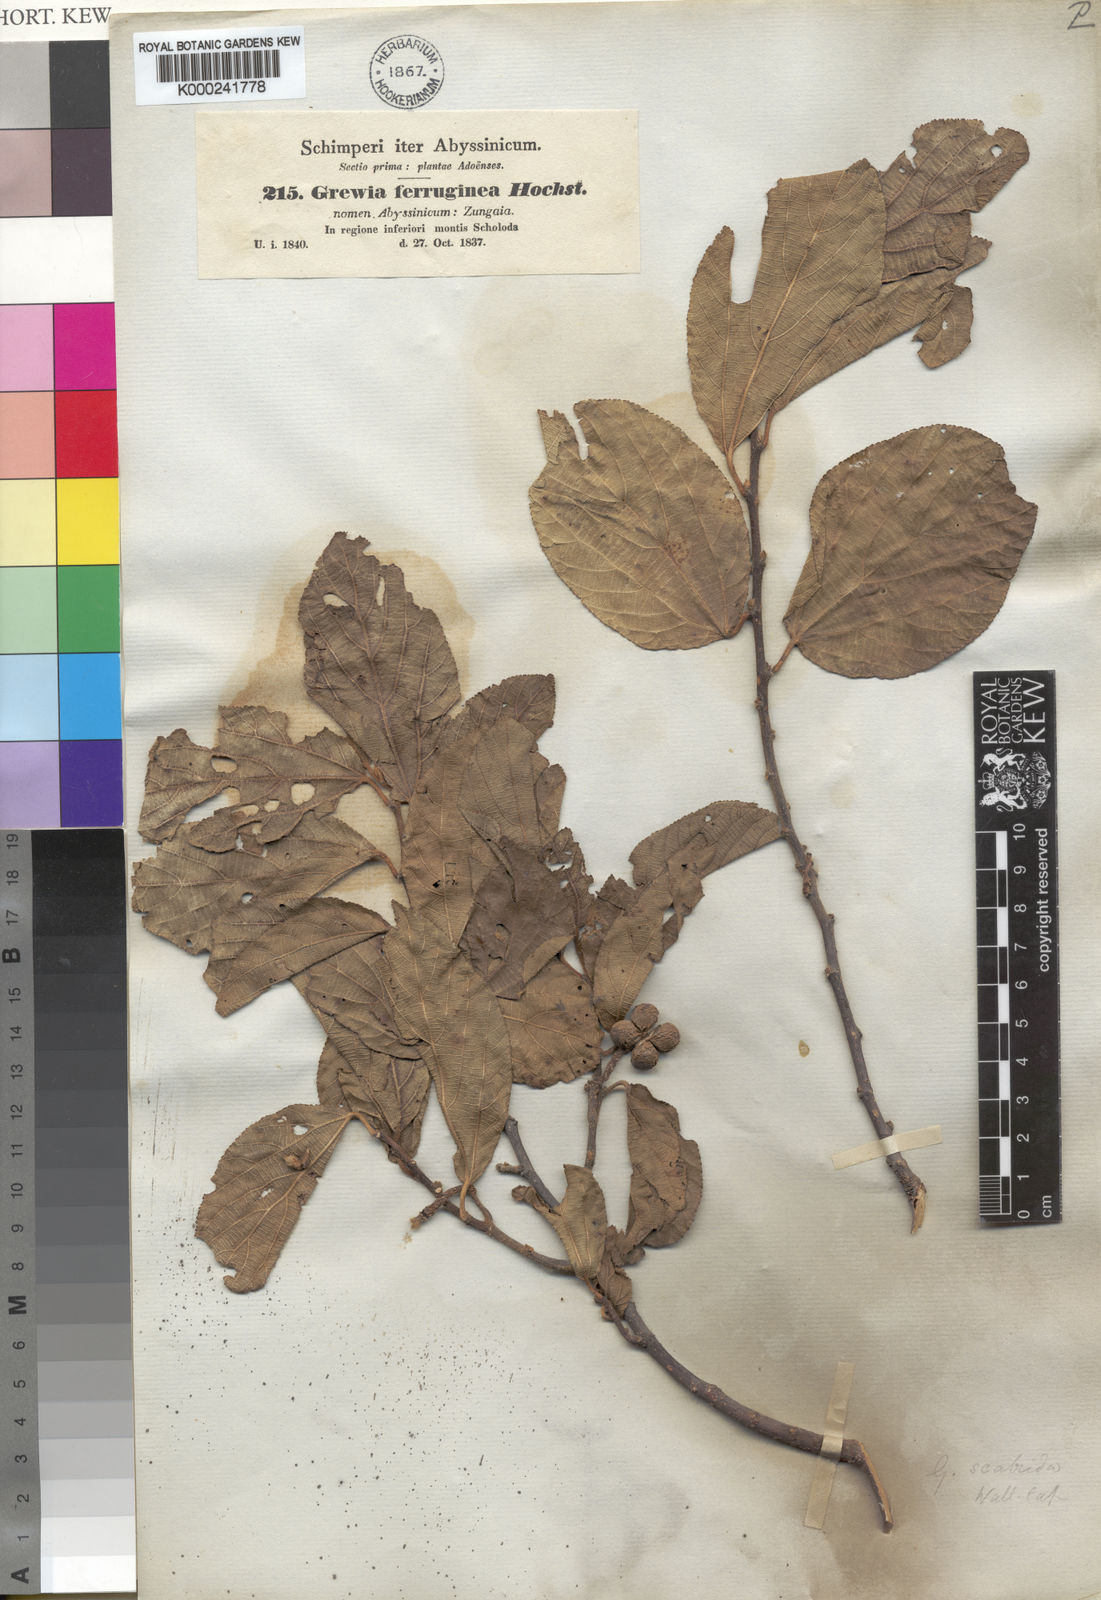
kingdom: Plantae
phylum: Tracheophyta
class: Magnoliopsida
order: Malvales
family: Malvaceae
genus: Grewia
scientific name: Grewia ferruginea
